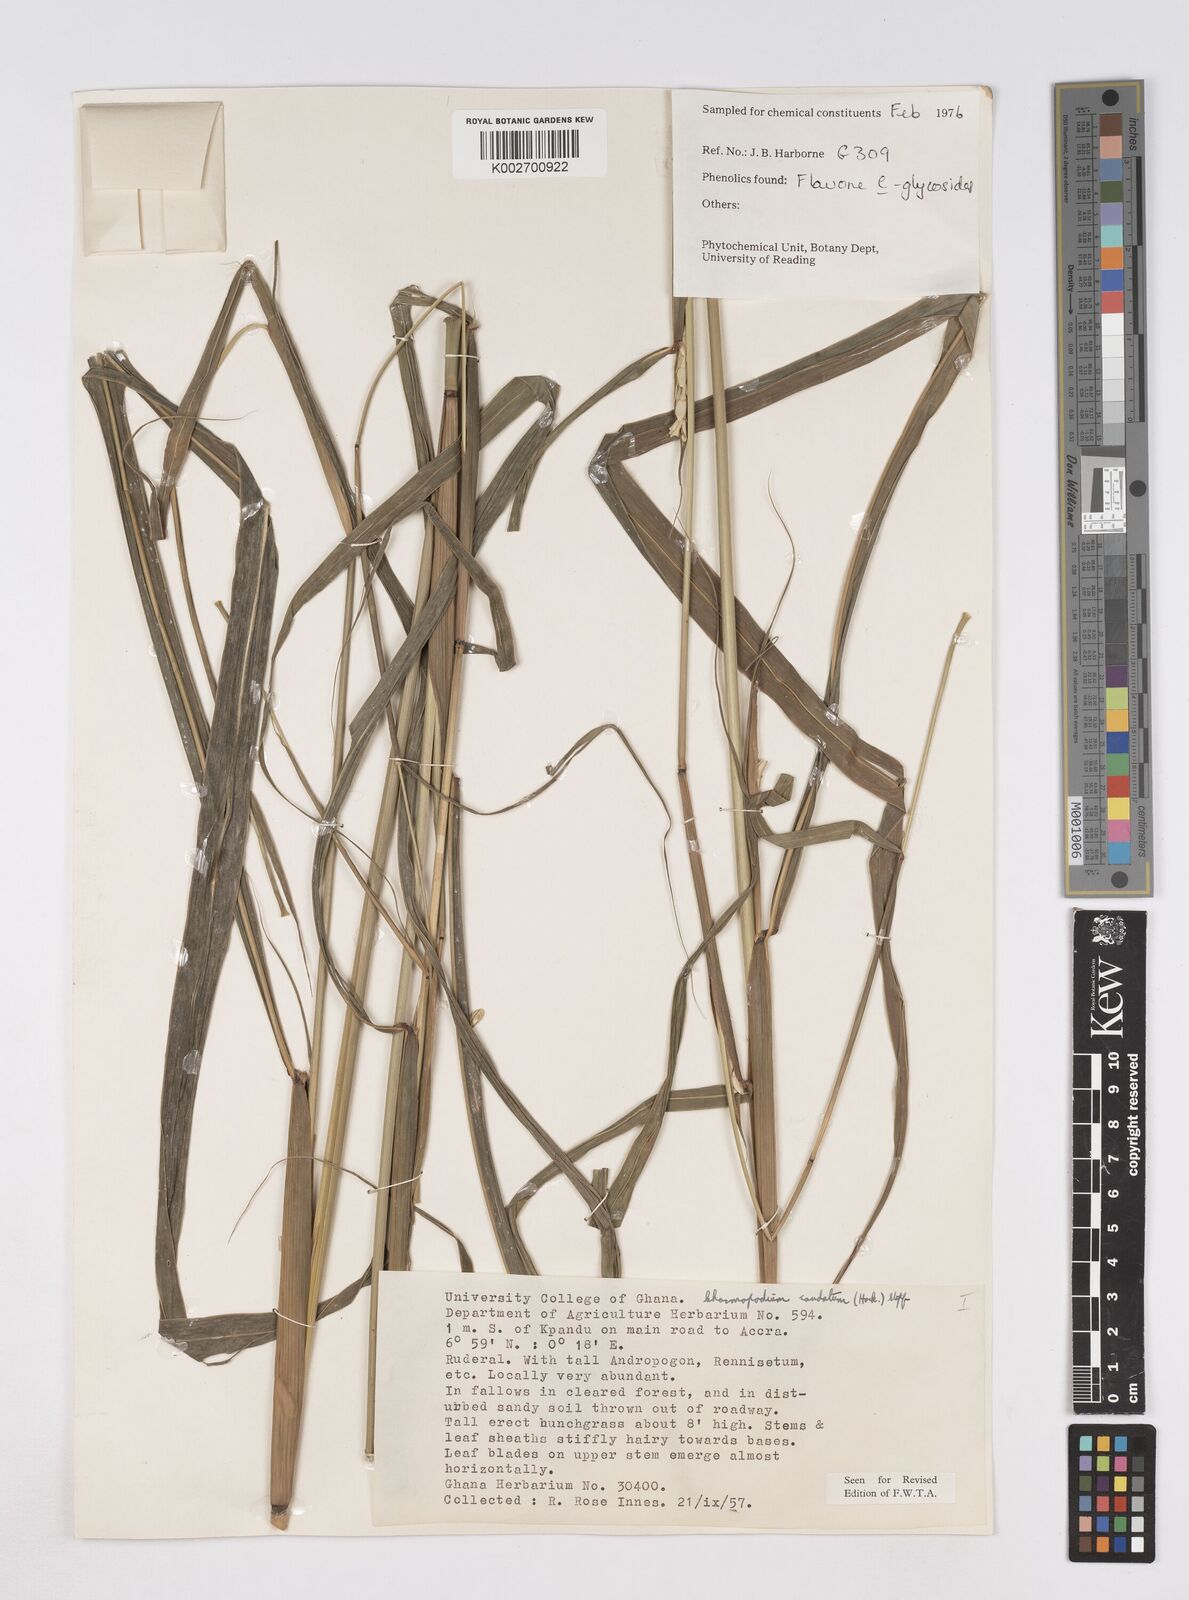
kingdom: Plantae
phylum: Tracheophyta
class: Liliopsida
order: Poales
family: Poaceae
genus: Chasmopodium
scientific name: Chasmopodium caudatum
